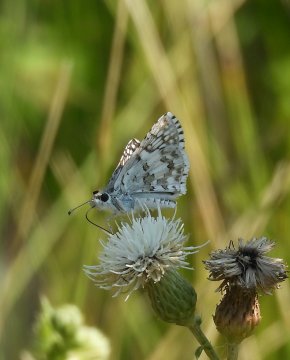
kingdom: Animalia
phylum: Arthropoda
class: Insecta
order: Lepidoptera
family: Hesperiidae
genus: Pyrgus
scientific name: Pyrgus communis
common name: Common Checkered-Skipper
